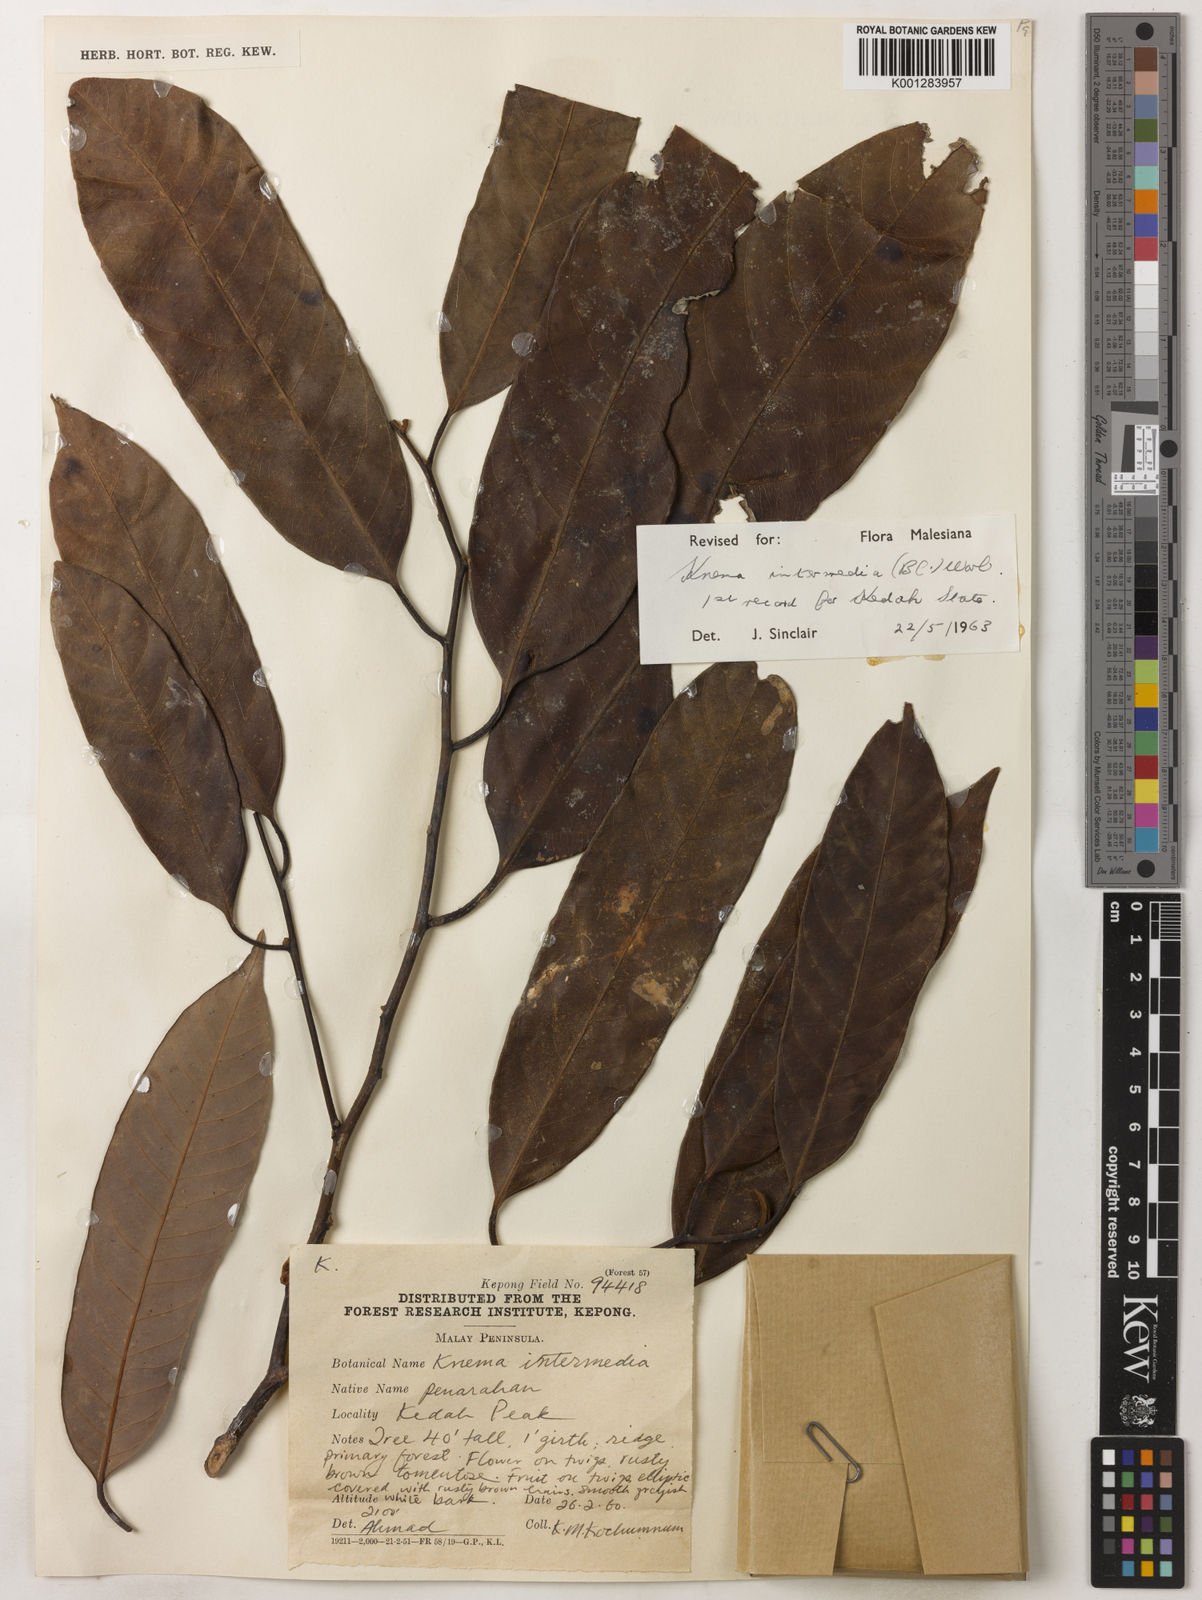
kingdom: Plantae
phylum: Tracheophyta
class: Magnoliopsida
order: Magnoliales
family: Myristicaceae
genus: Knema
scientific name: Knema intermedia
